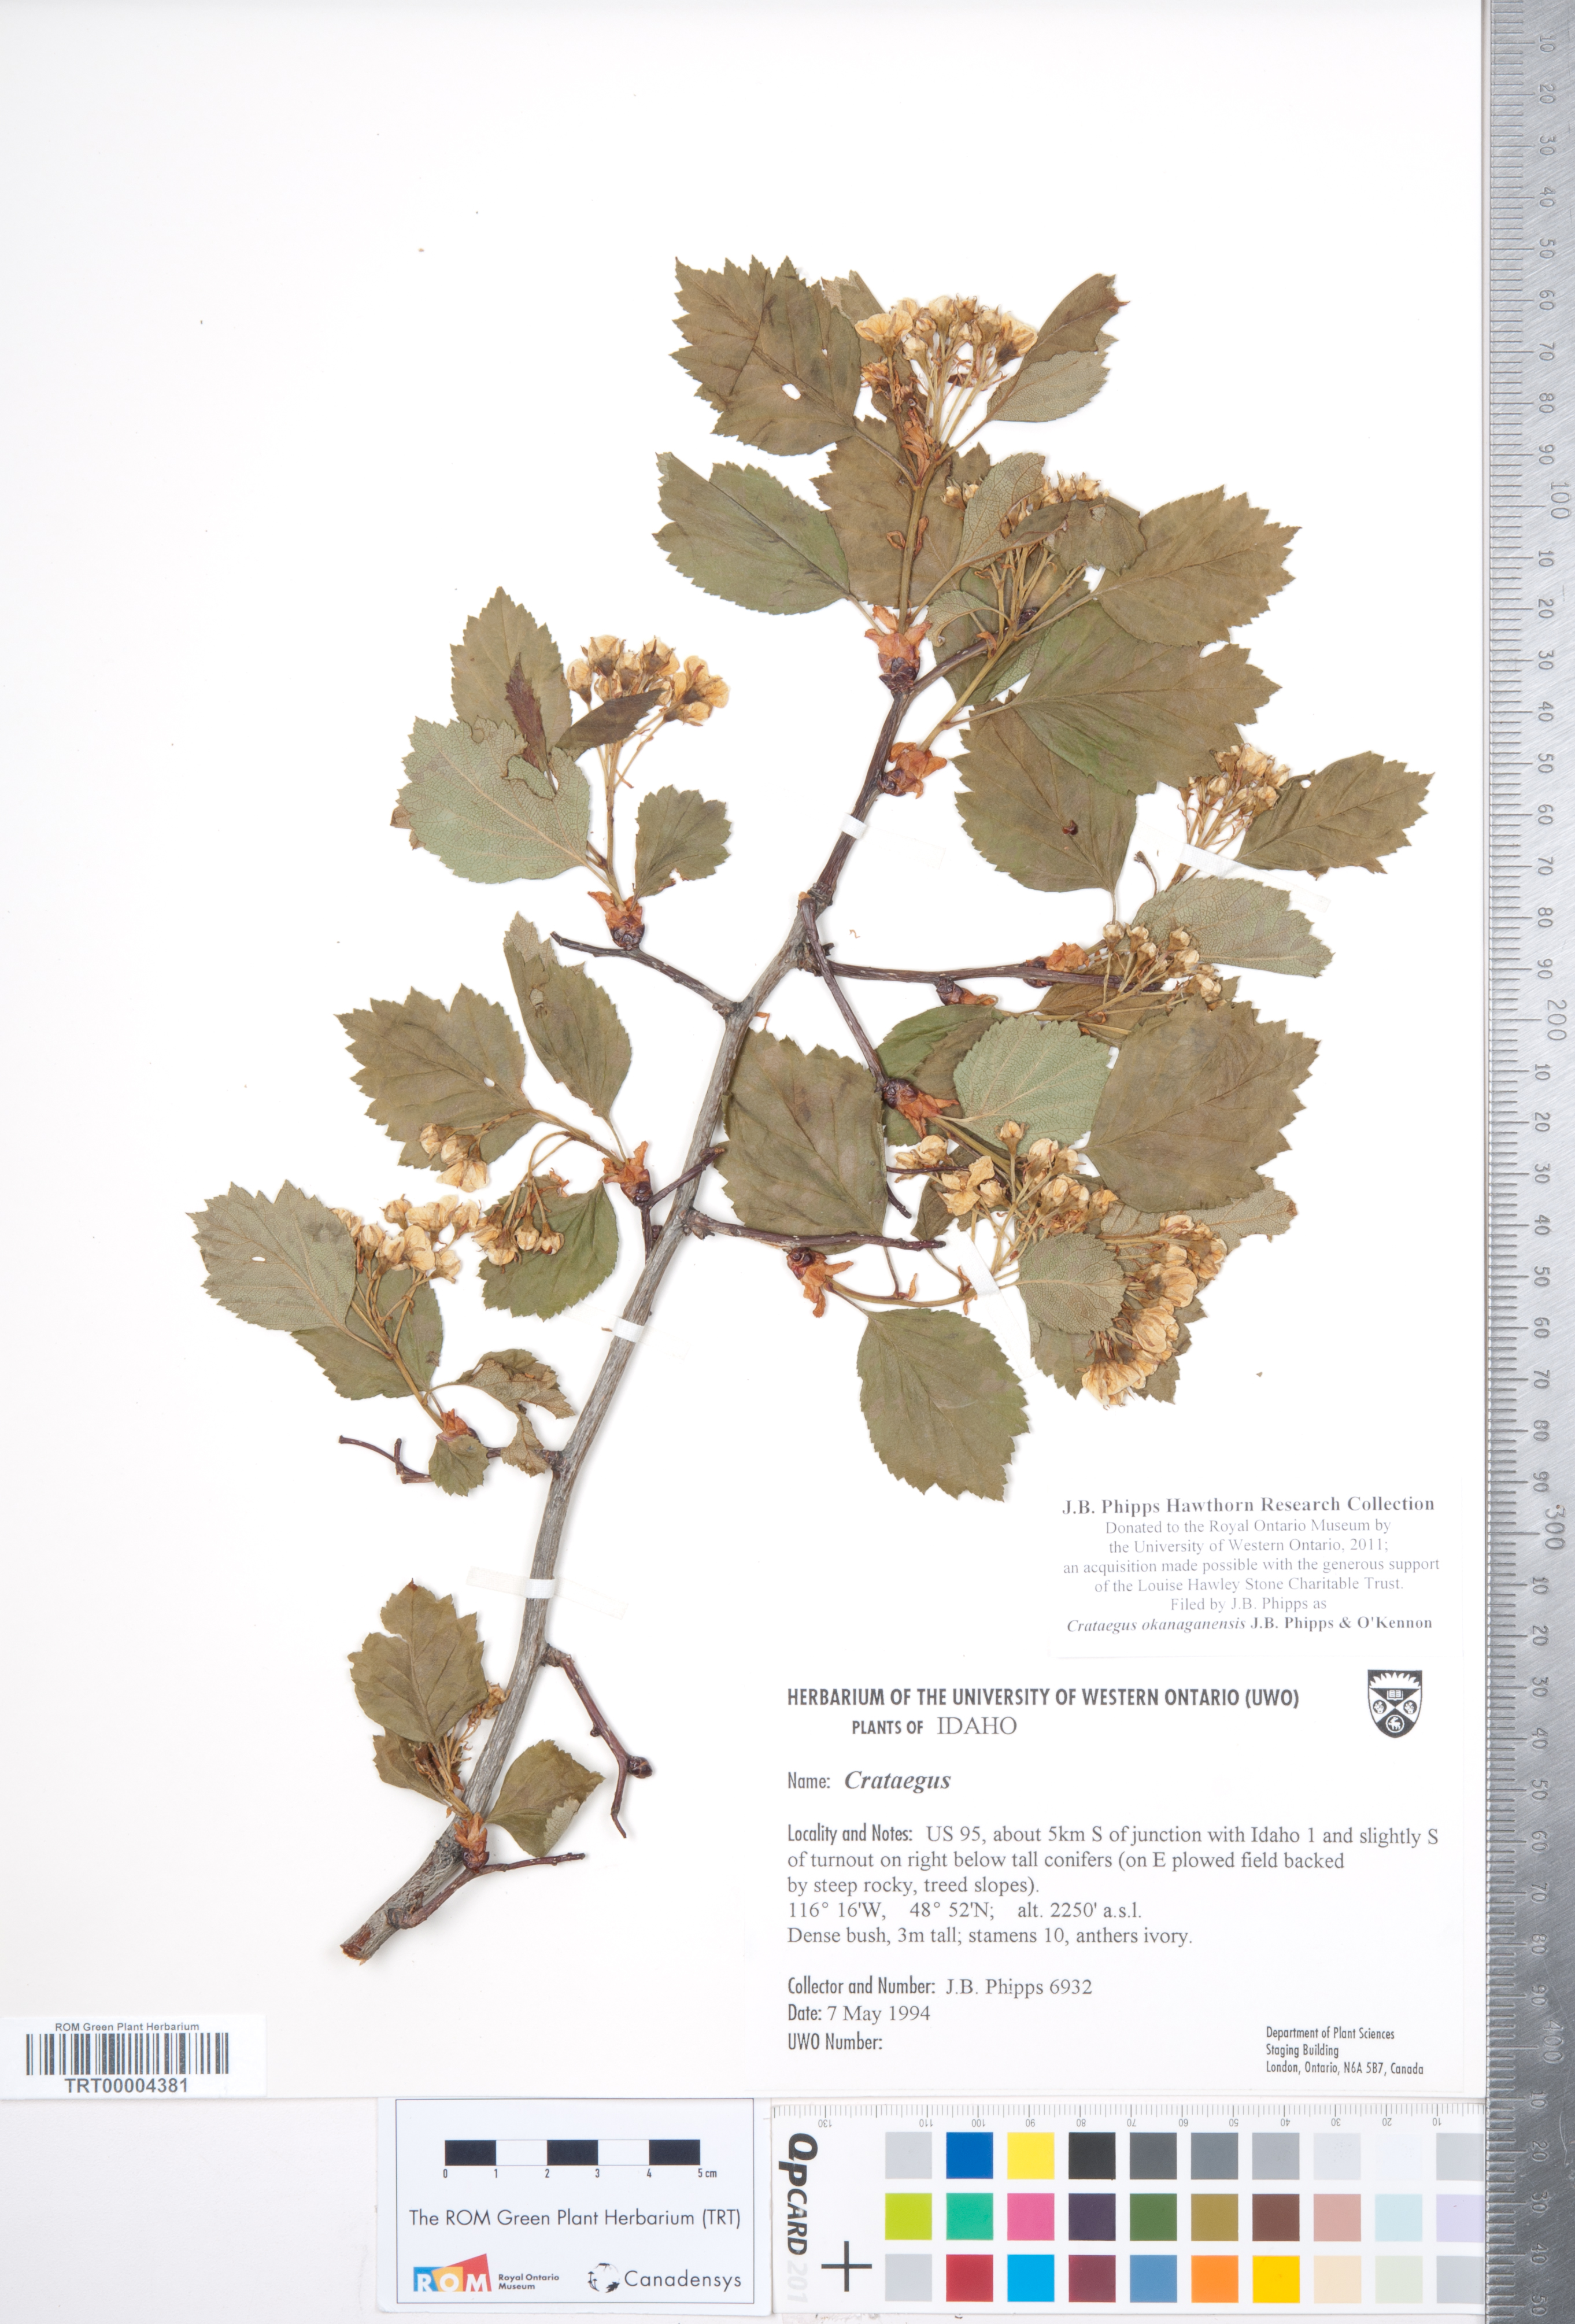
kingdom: Plantae
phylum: Tracheophyta
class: Magnoliopsida
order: Rosales
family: Rosaceae
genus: Crataegus
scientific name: Crataegus okanaganensis
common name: Okanagan valley hawthorn
